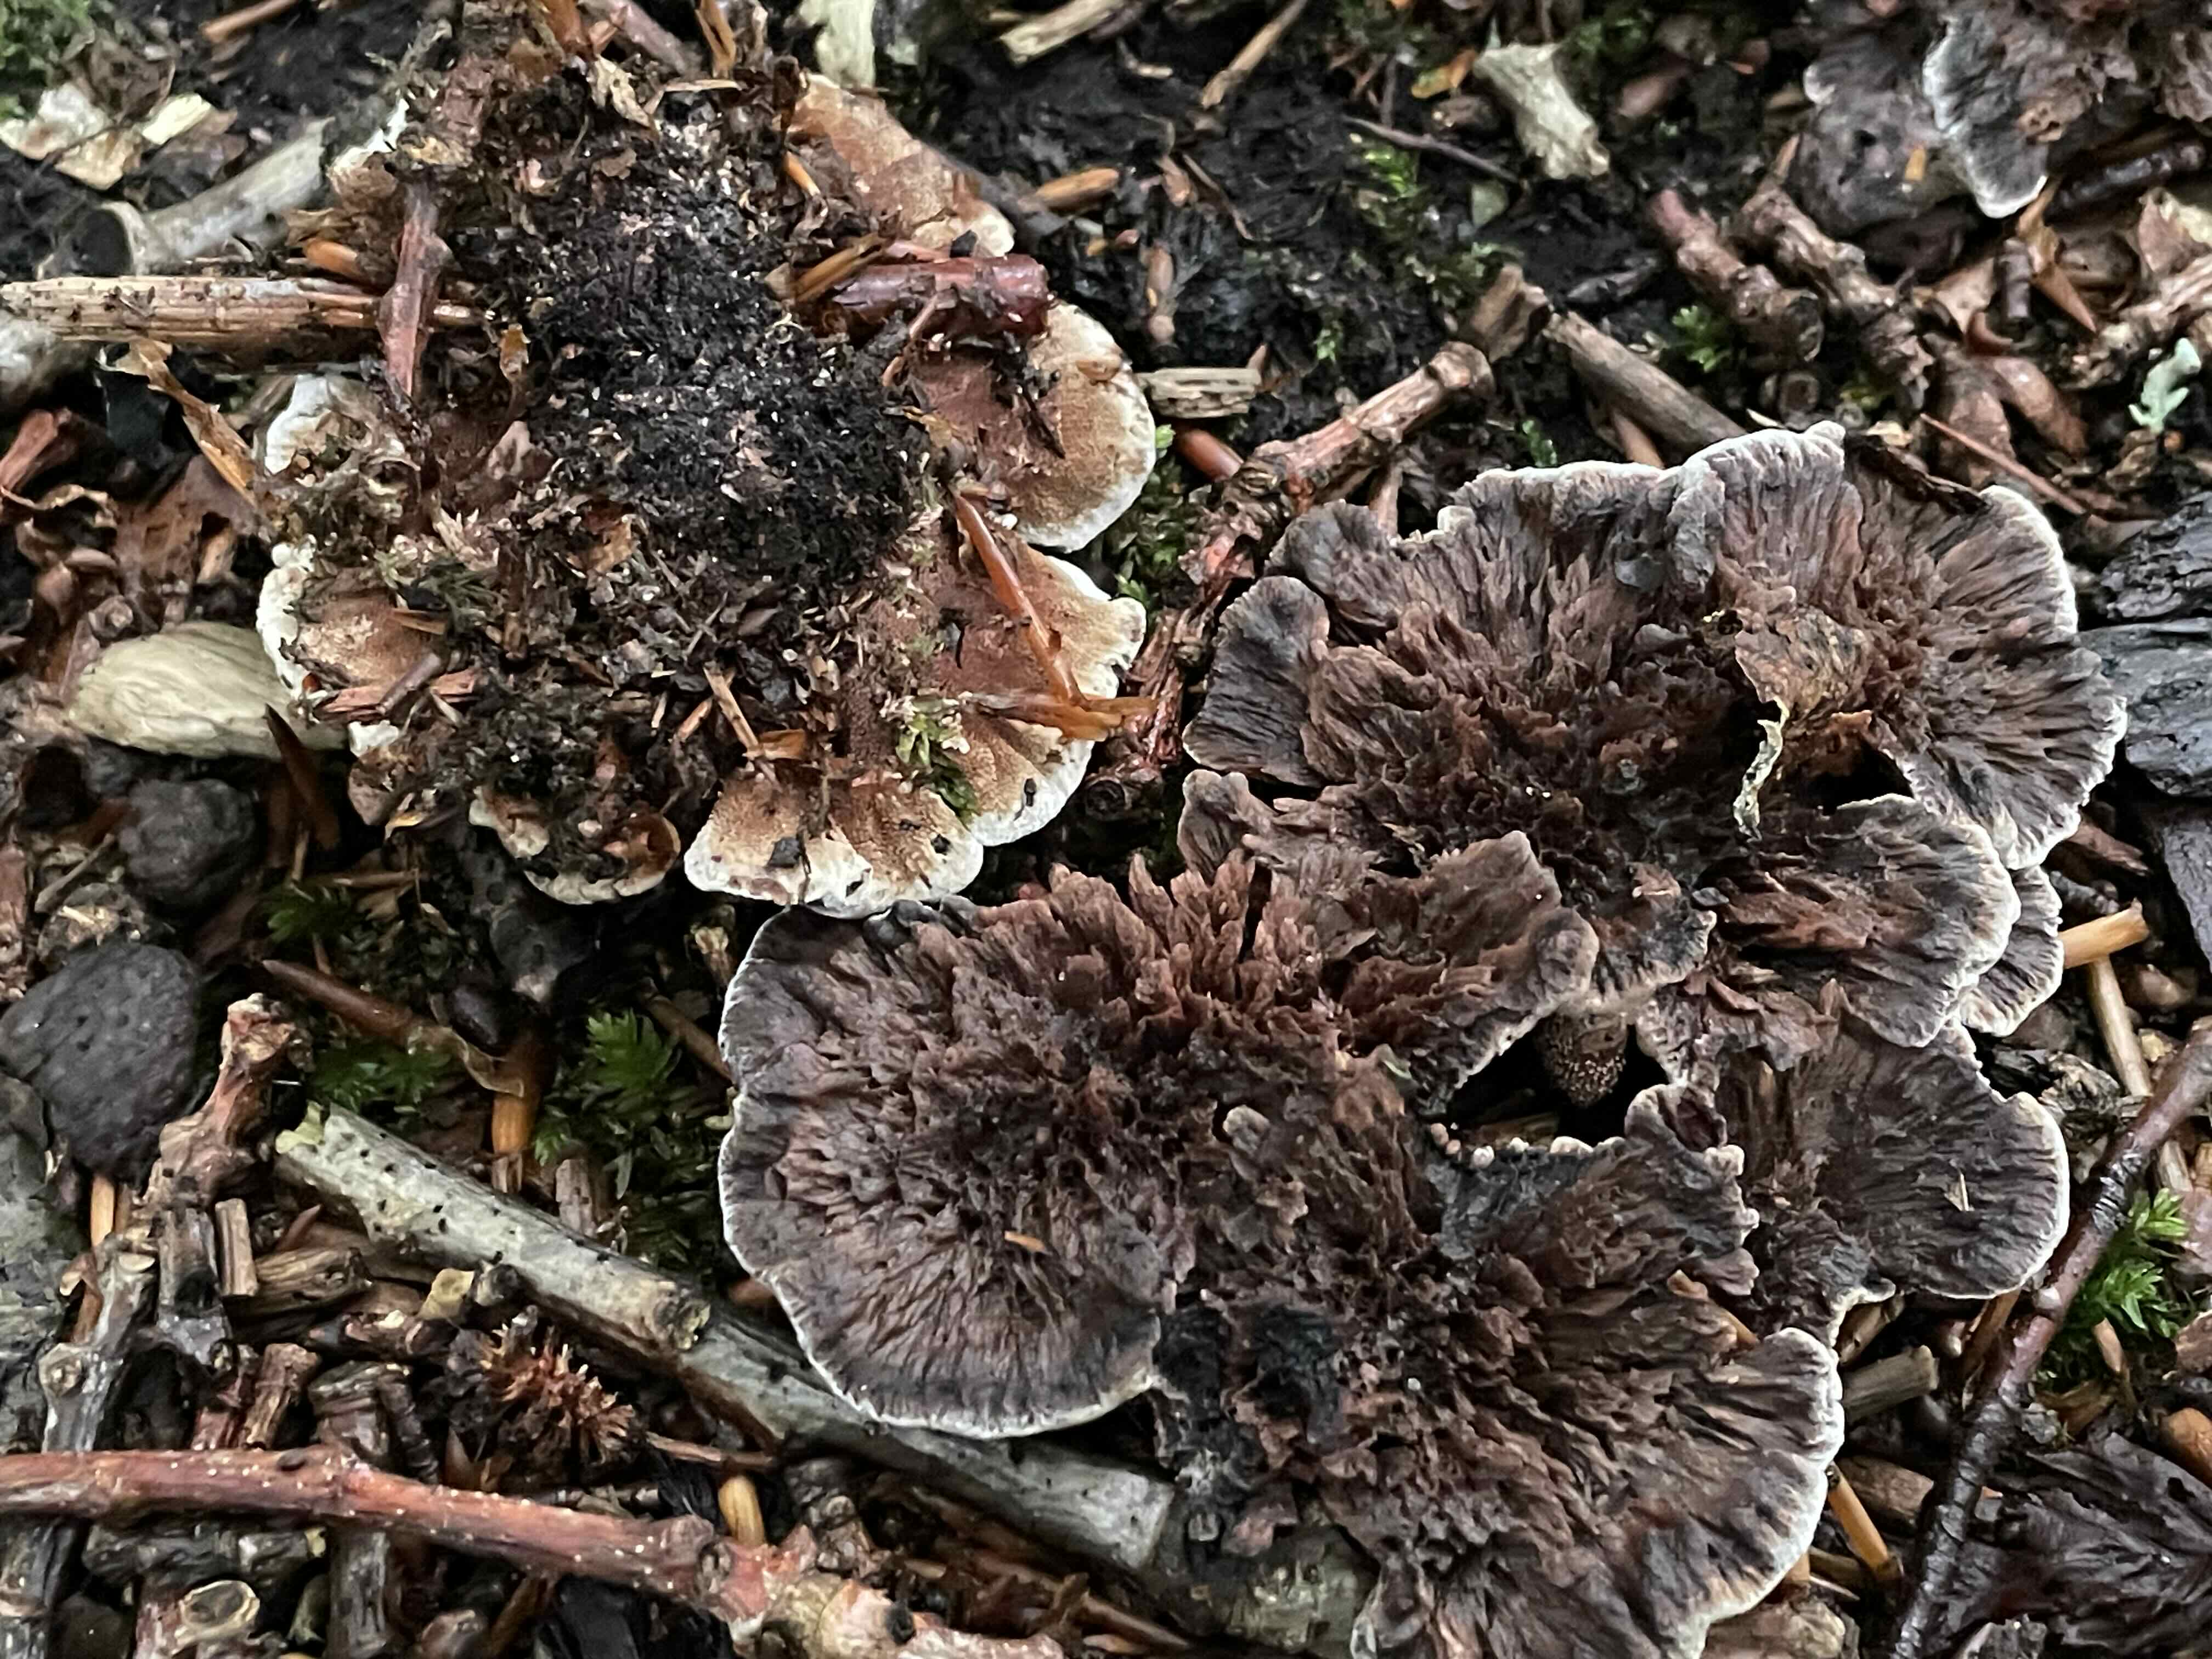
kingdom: Fungi
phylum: Basidiomycota
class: Agaricomycetes
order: Thelephorales
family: Thelephoraceae
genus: Thelephora
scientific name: Thelephora terrestris
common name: fliget frynsesvamp
